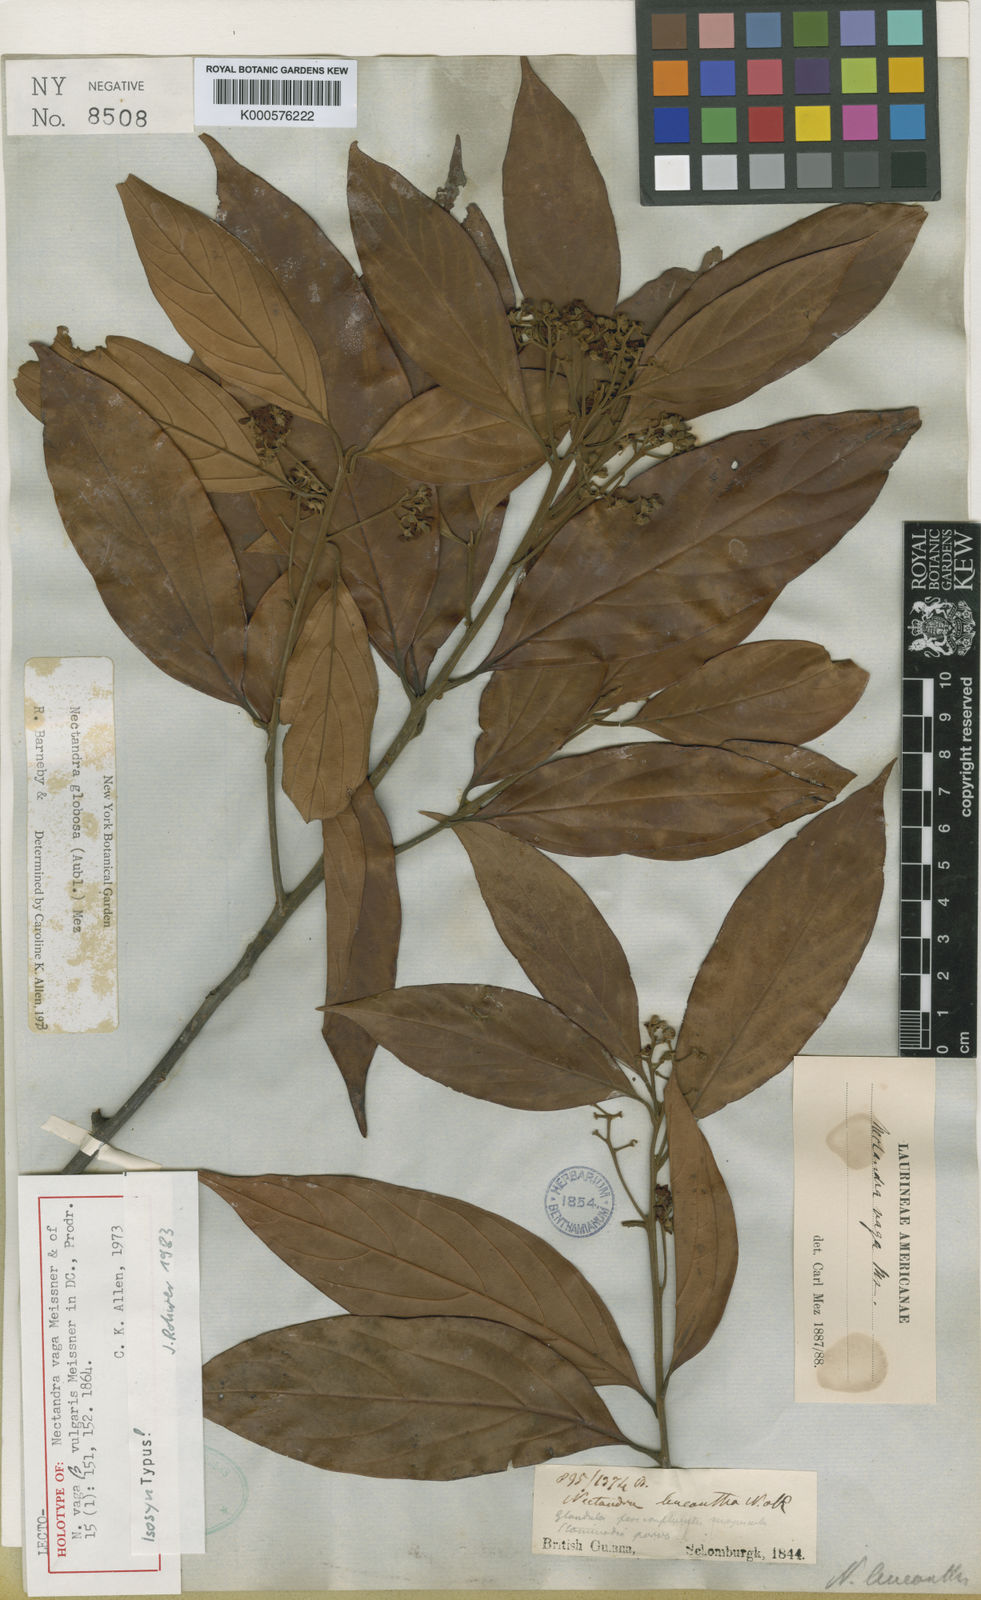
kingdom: Plantae
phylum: Tracheophyta
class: Magnoliopsida
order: Laurales
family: Lauraceae
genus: Nectandra
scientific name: Nectandra globosa
